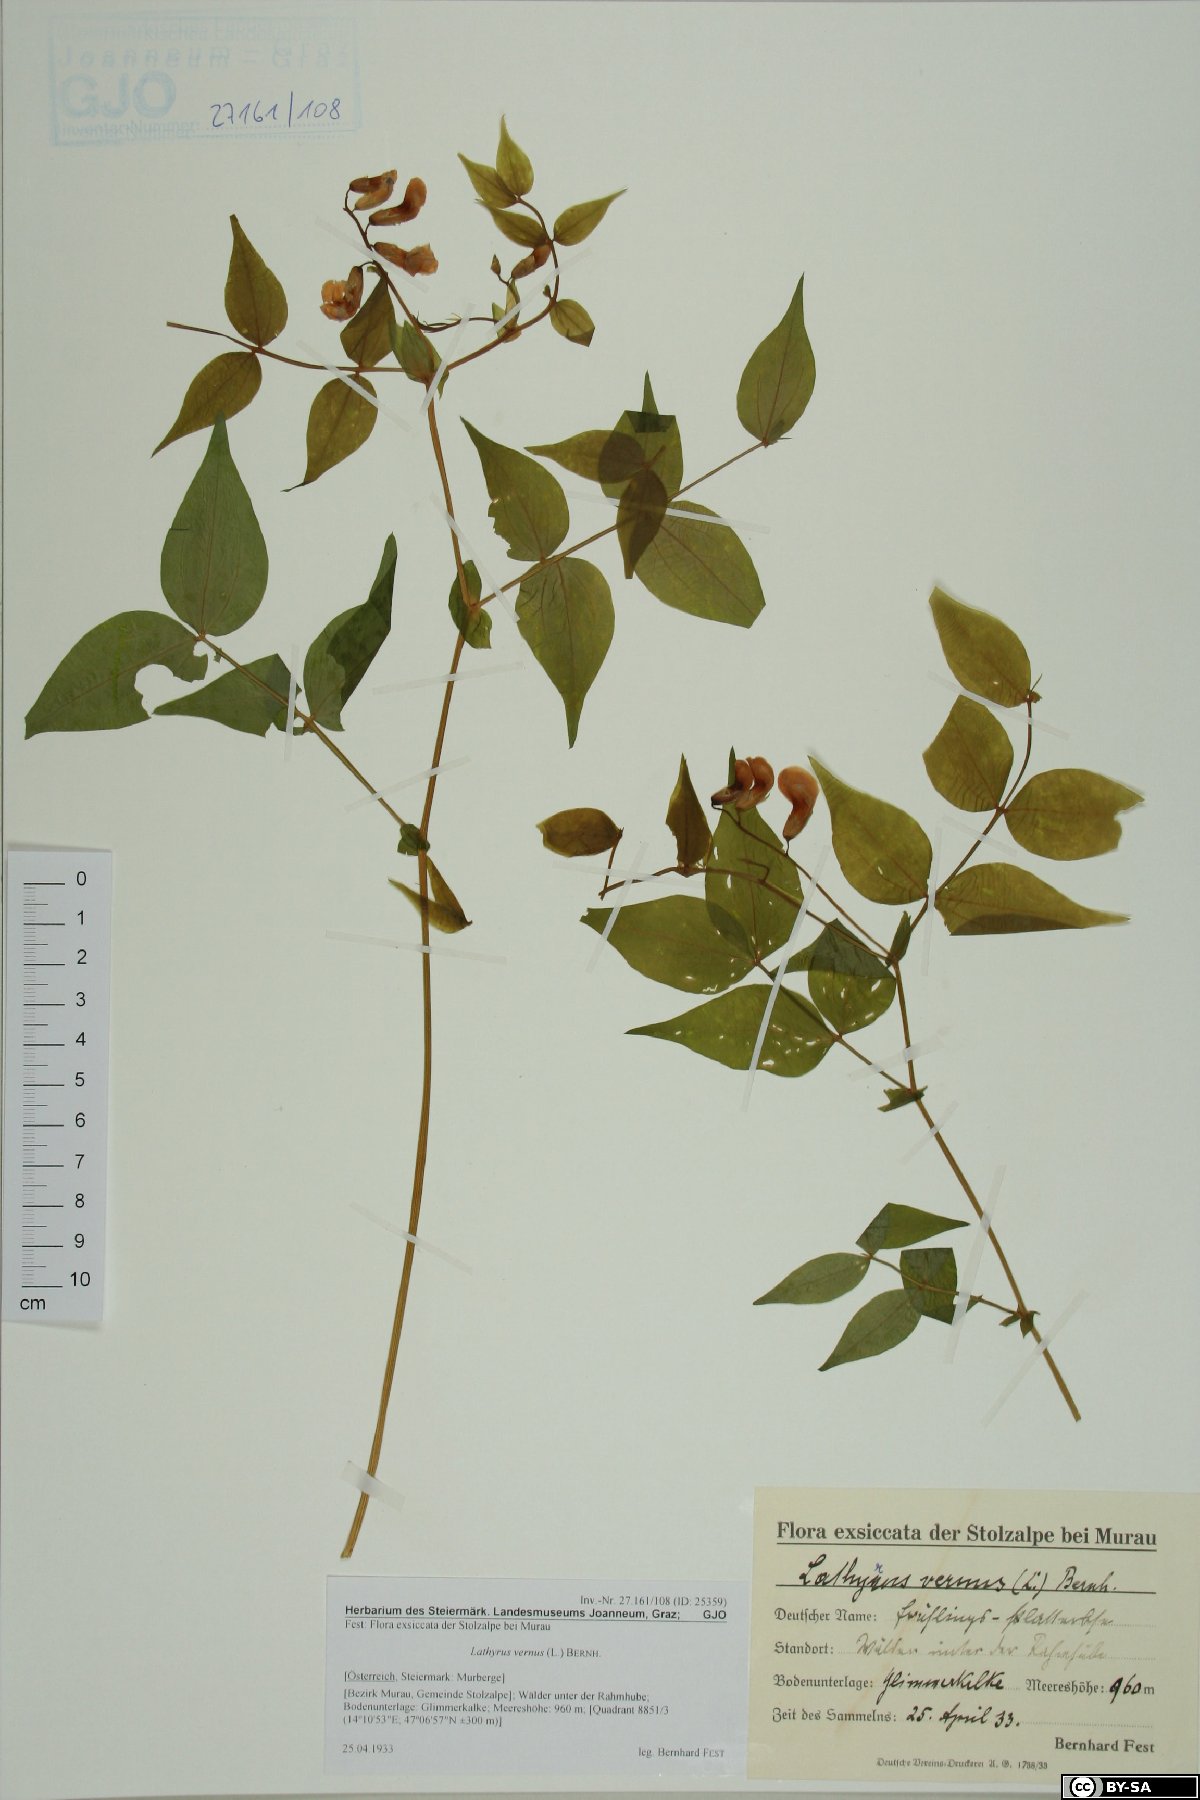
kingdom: Plantae
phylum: Tracheophyta
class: Magnoliopsida
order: Fabales
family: Fabaceae
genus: Lathyrus
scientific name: Lathyrus vernus
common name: Spring pea
